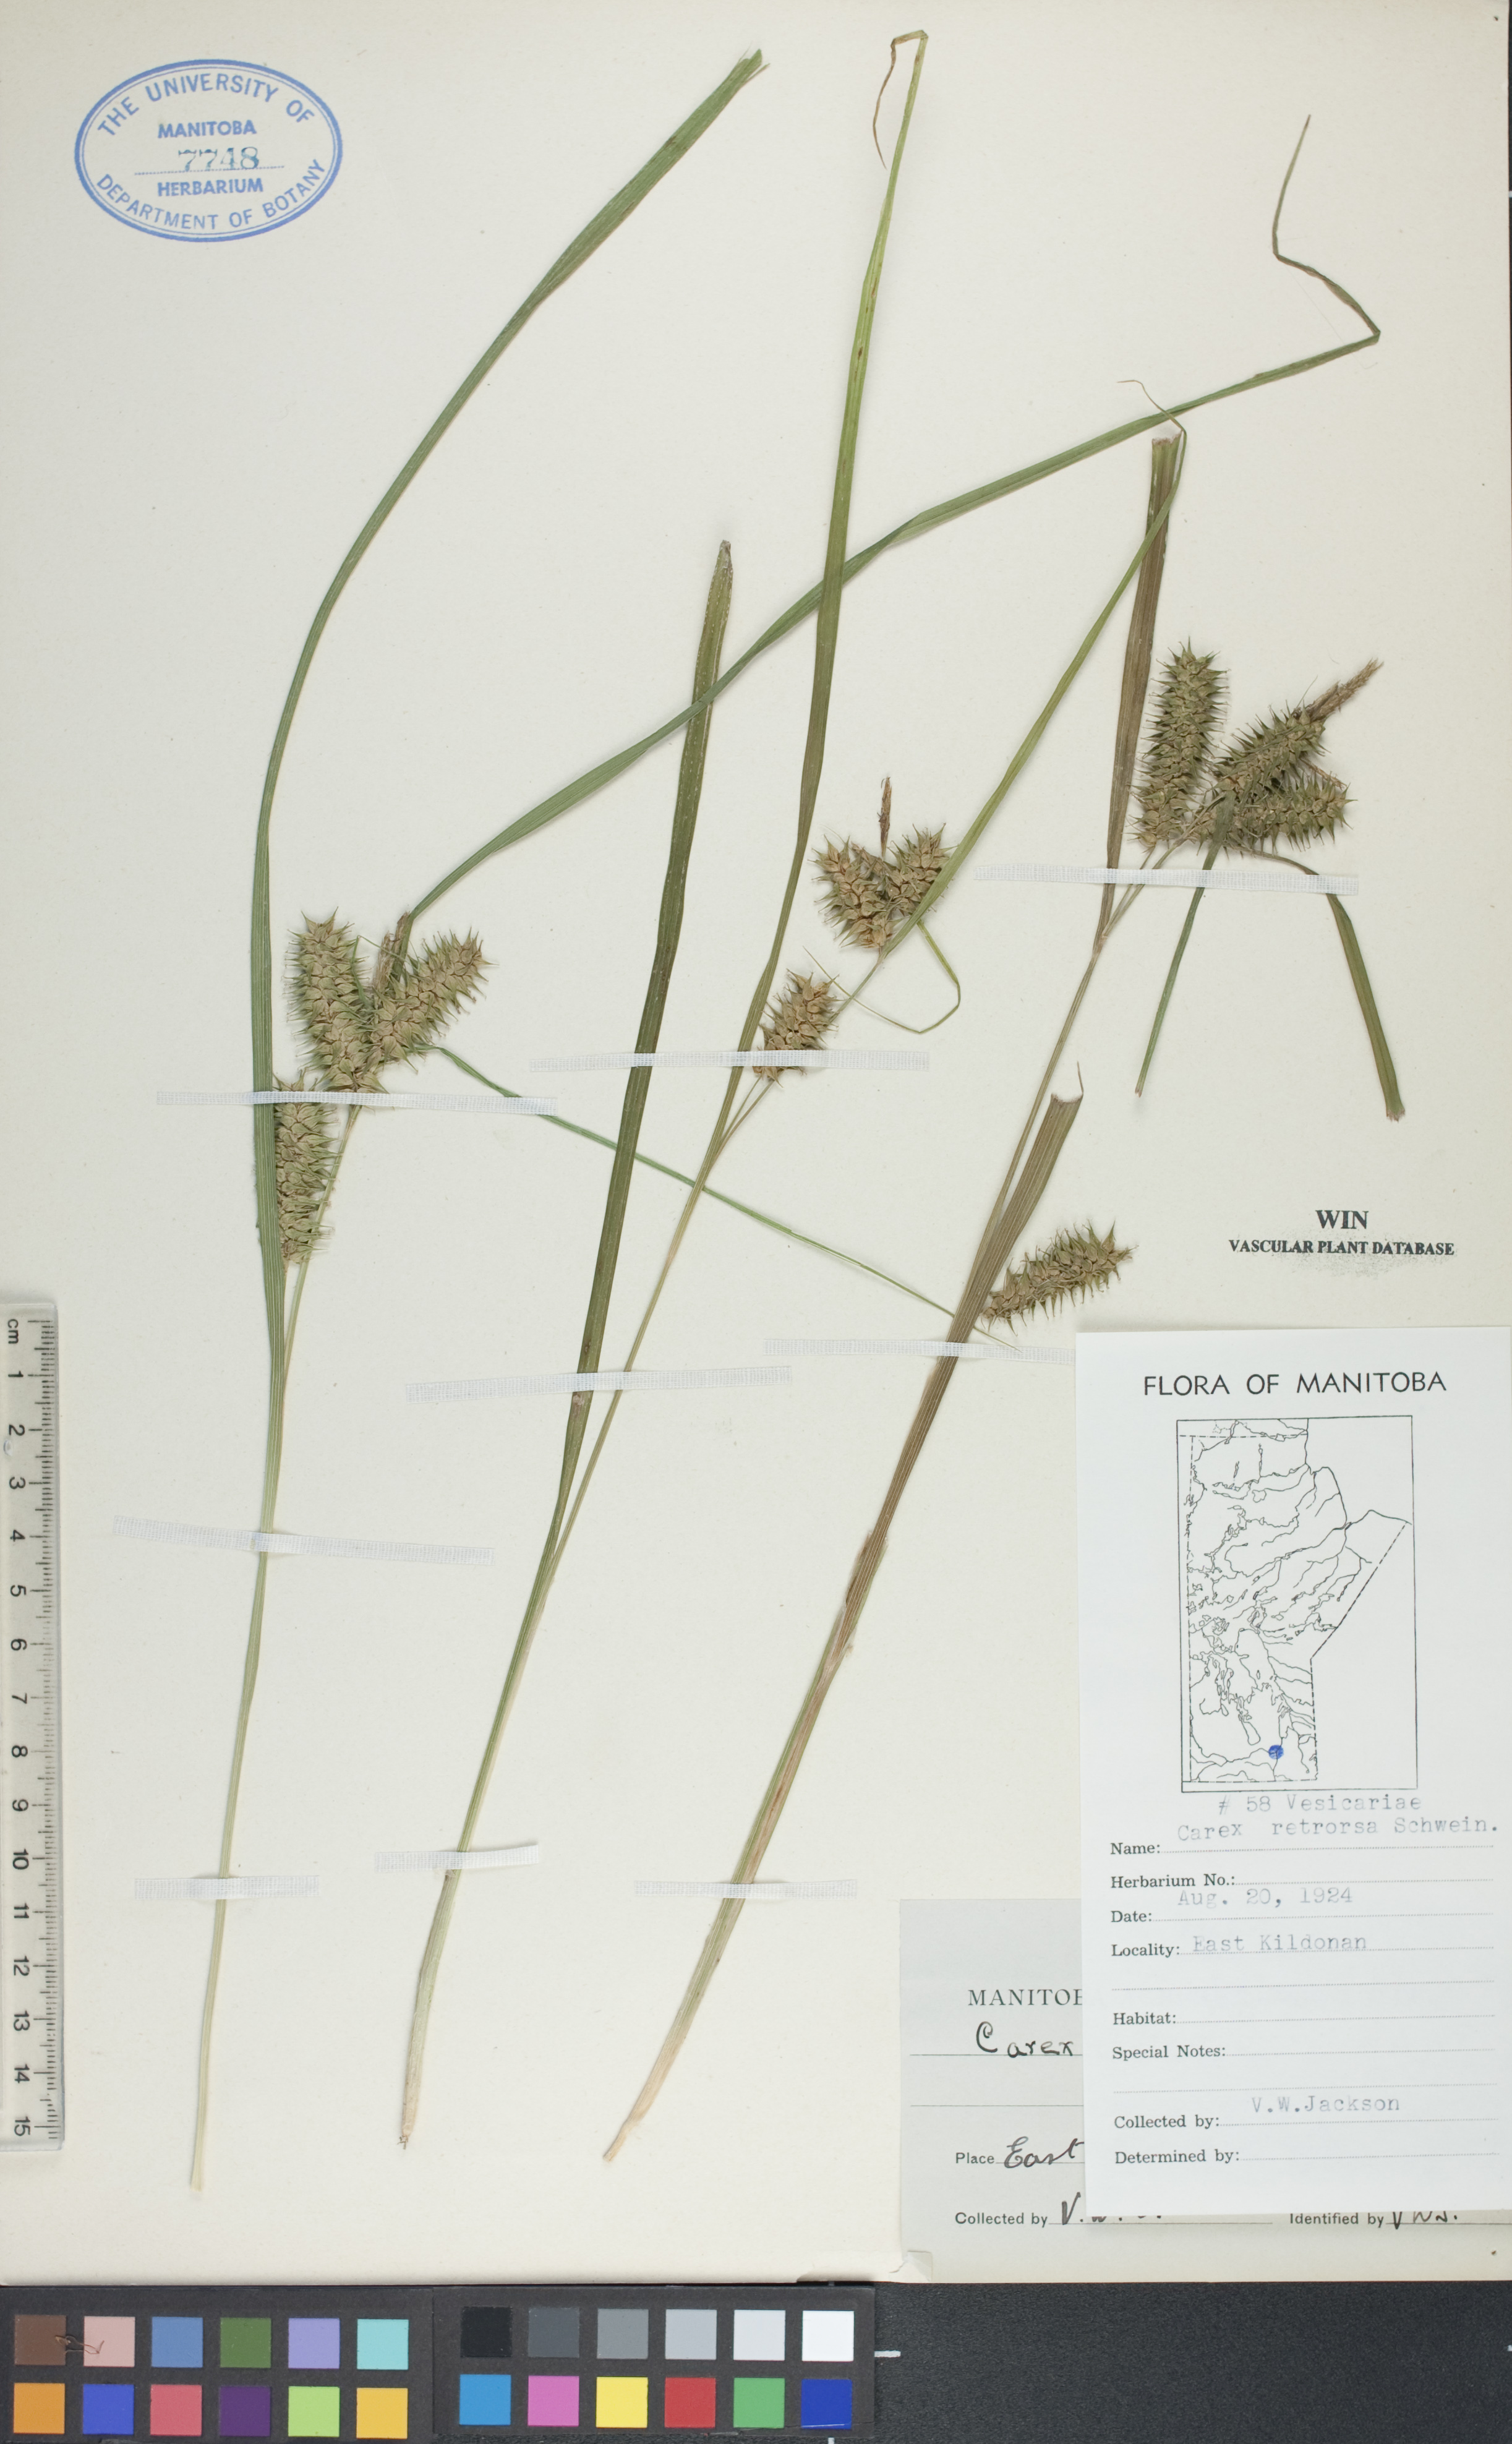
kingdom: Plantae
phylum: Tracheophyta
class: Liliopsida
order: Poales
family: Cyperaceae
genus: Carex
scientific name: Carex retrorsa
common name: Knot-sheath sedge
